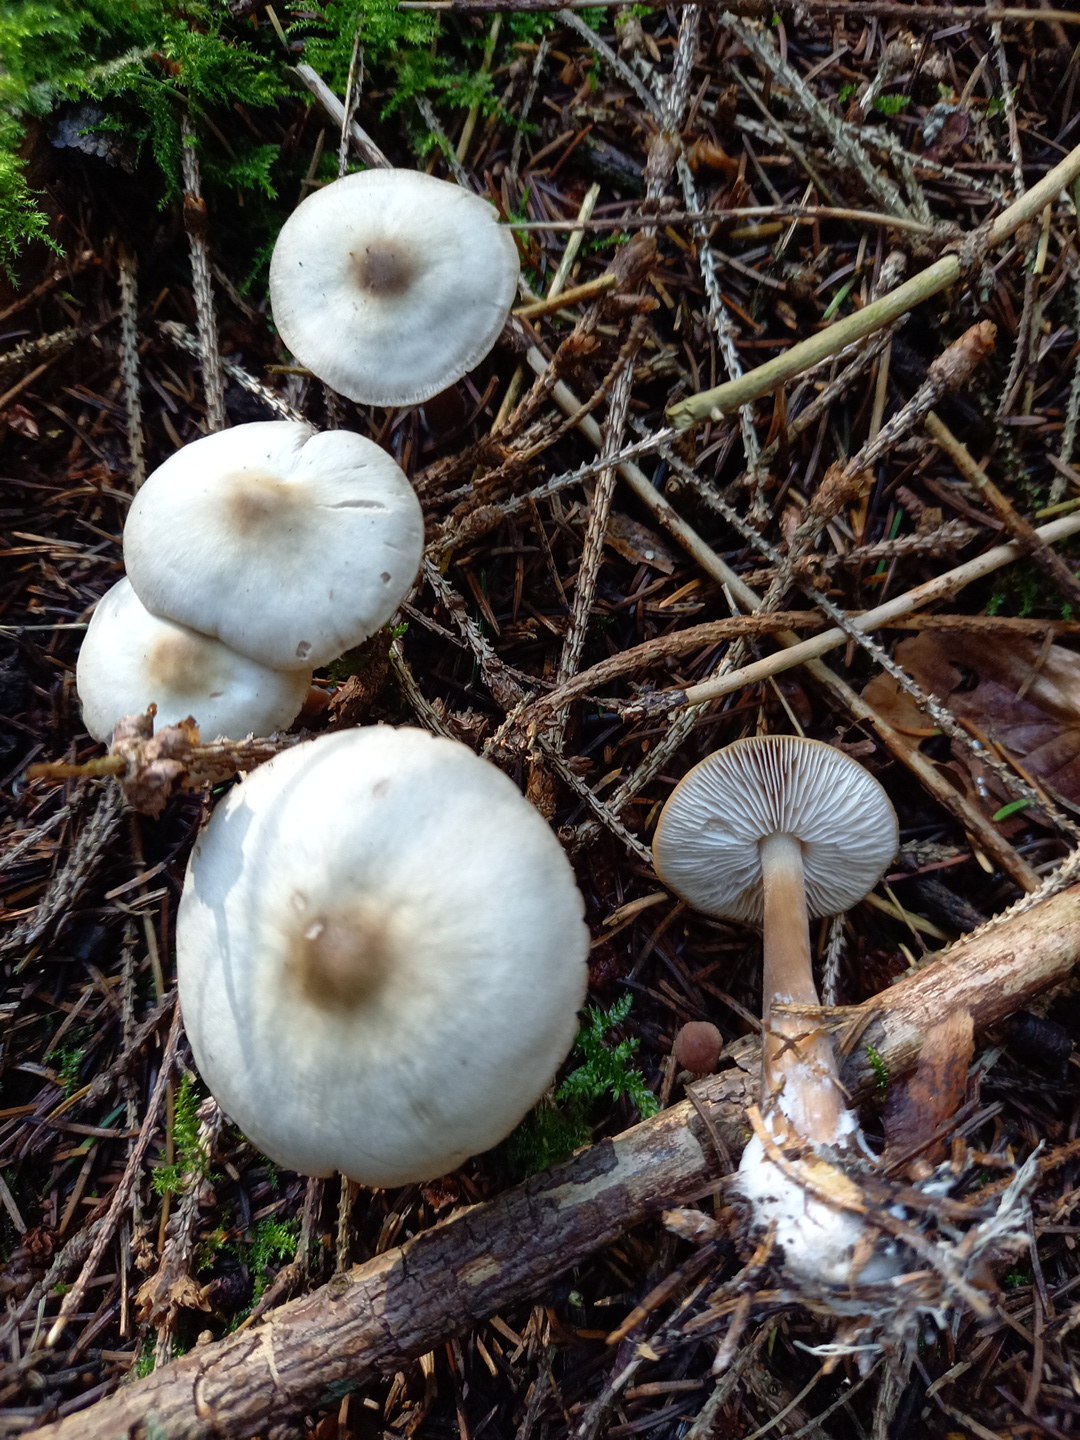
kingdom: Fungi
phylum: Basidiomycota
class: Agaricomycetes
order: Agaricales
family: Omphalotaceae
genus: Rhodocollybia
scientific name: Rhodocollybia asema
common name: horngrå fladhat
